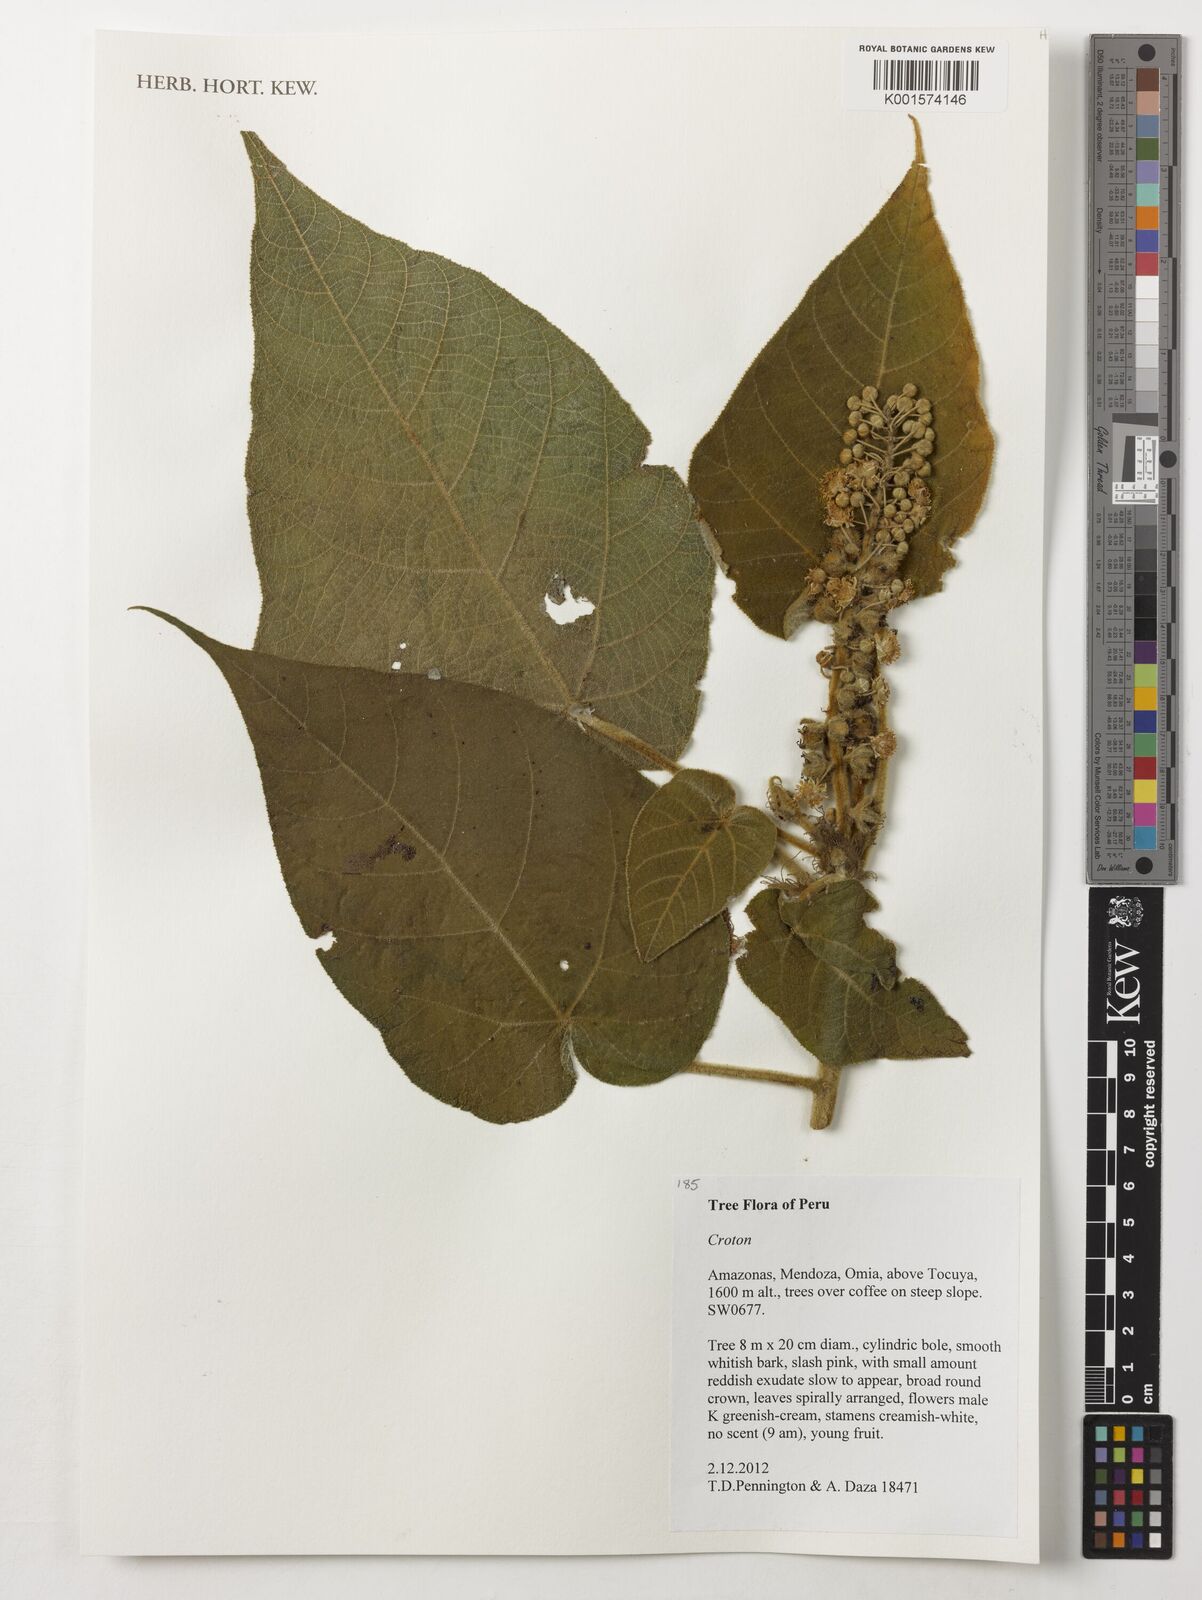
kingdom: Plantae
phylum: Tracheophyta
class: Magnoliopsida
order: Malpighiales
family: Euphorbiaceae
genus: Croton
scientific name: Croton
